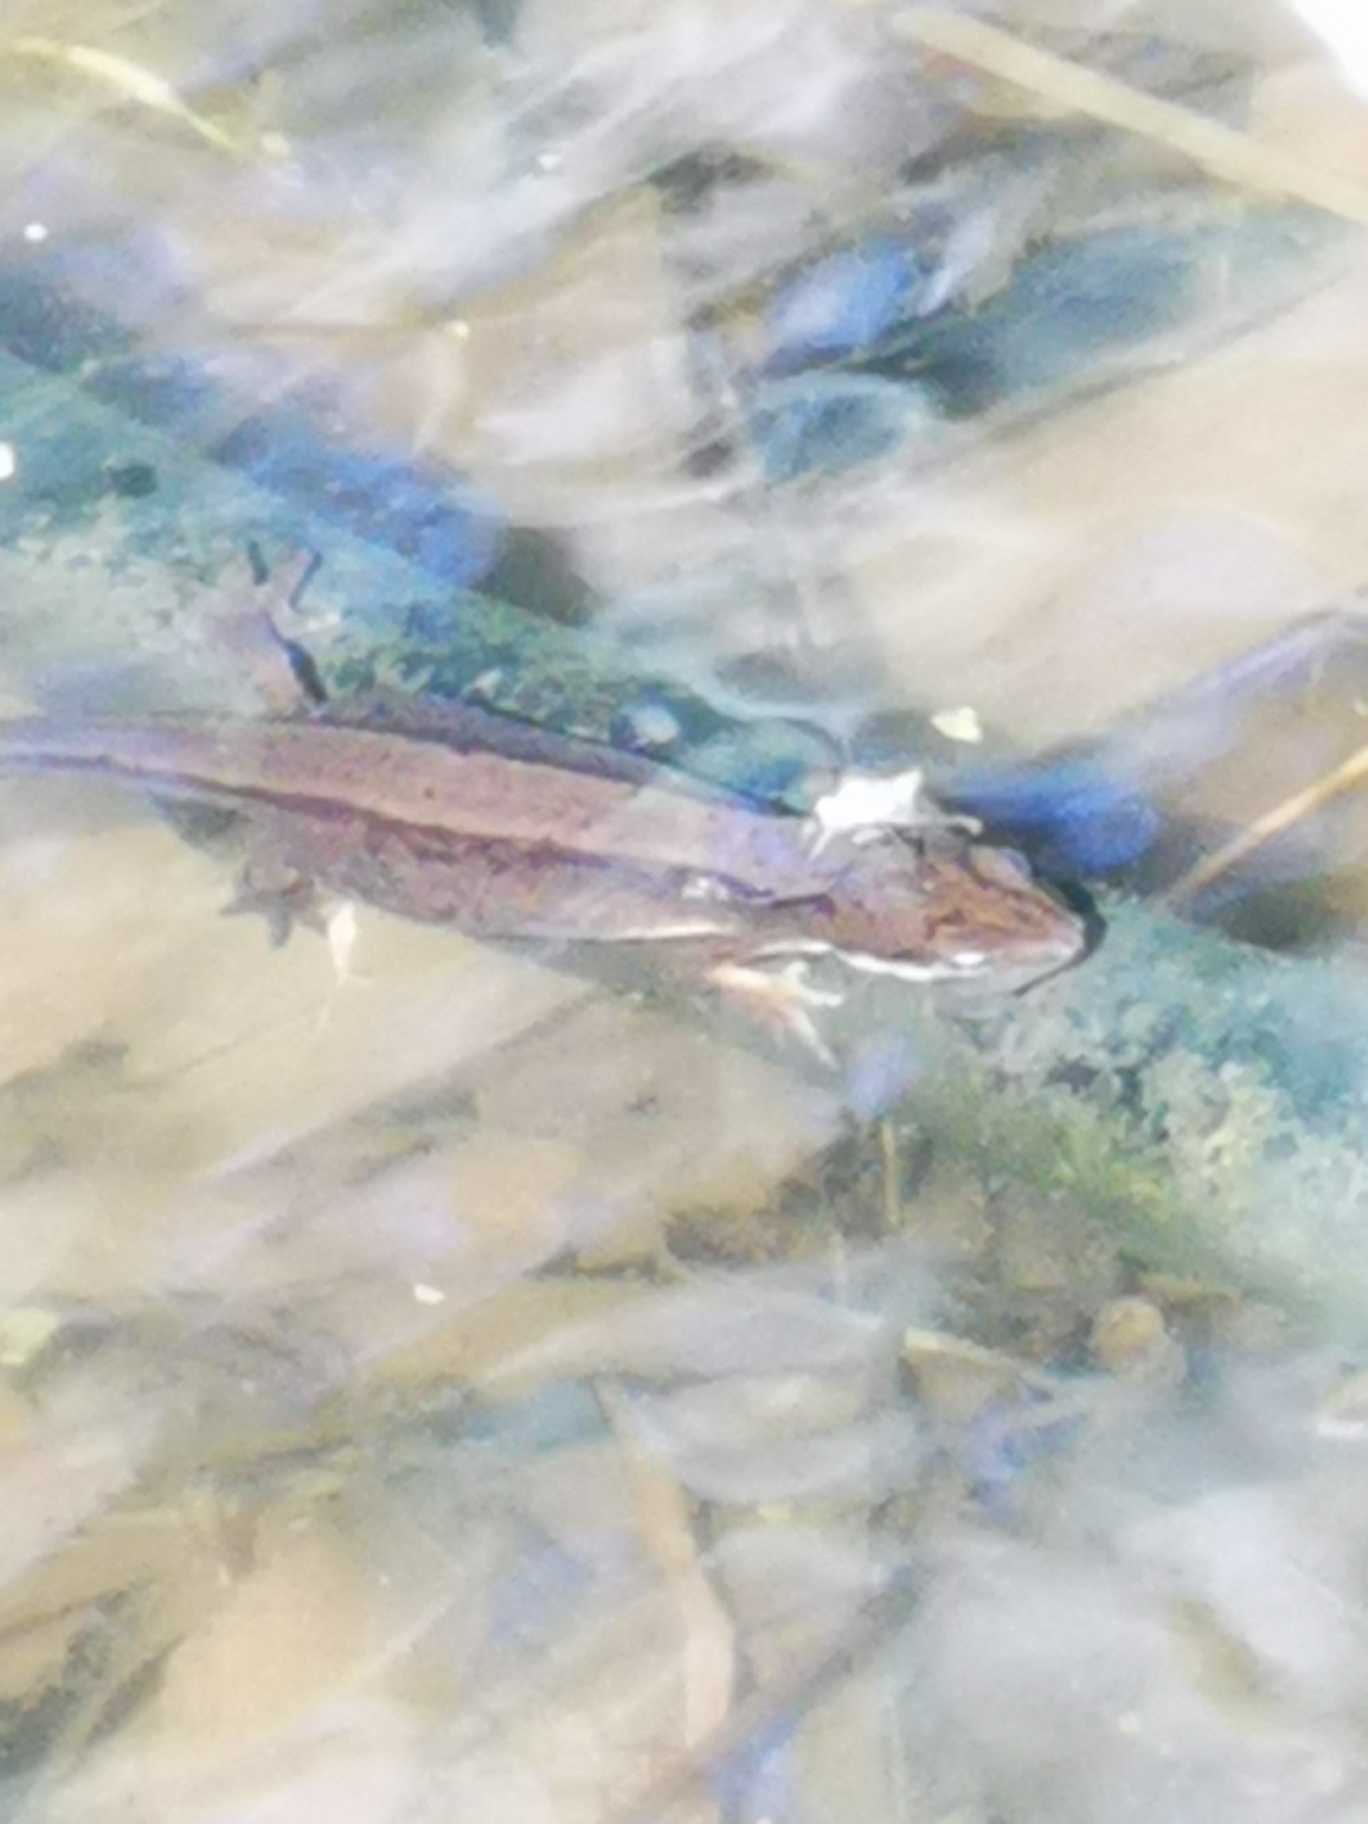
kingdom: Animalia
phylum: Chordata
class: Amphibia
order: Caudata
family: Salamandridae
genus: Lissotriton
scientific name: Lissotriton vulgaris
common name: Lille vandsalamander
